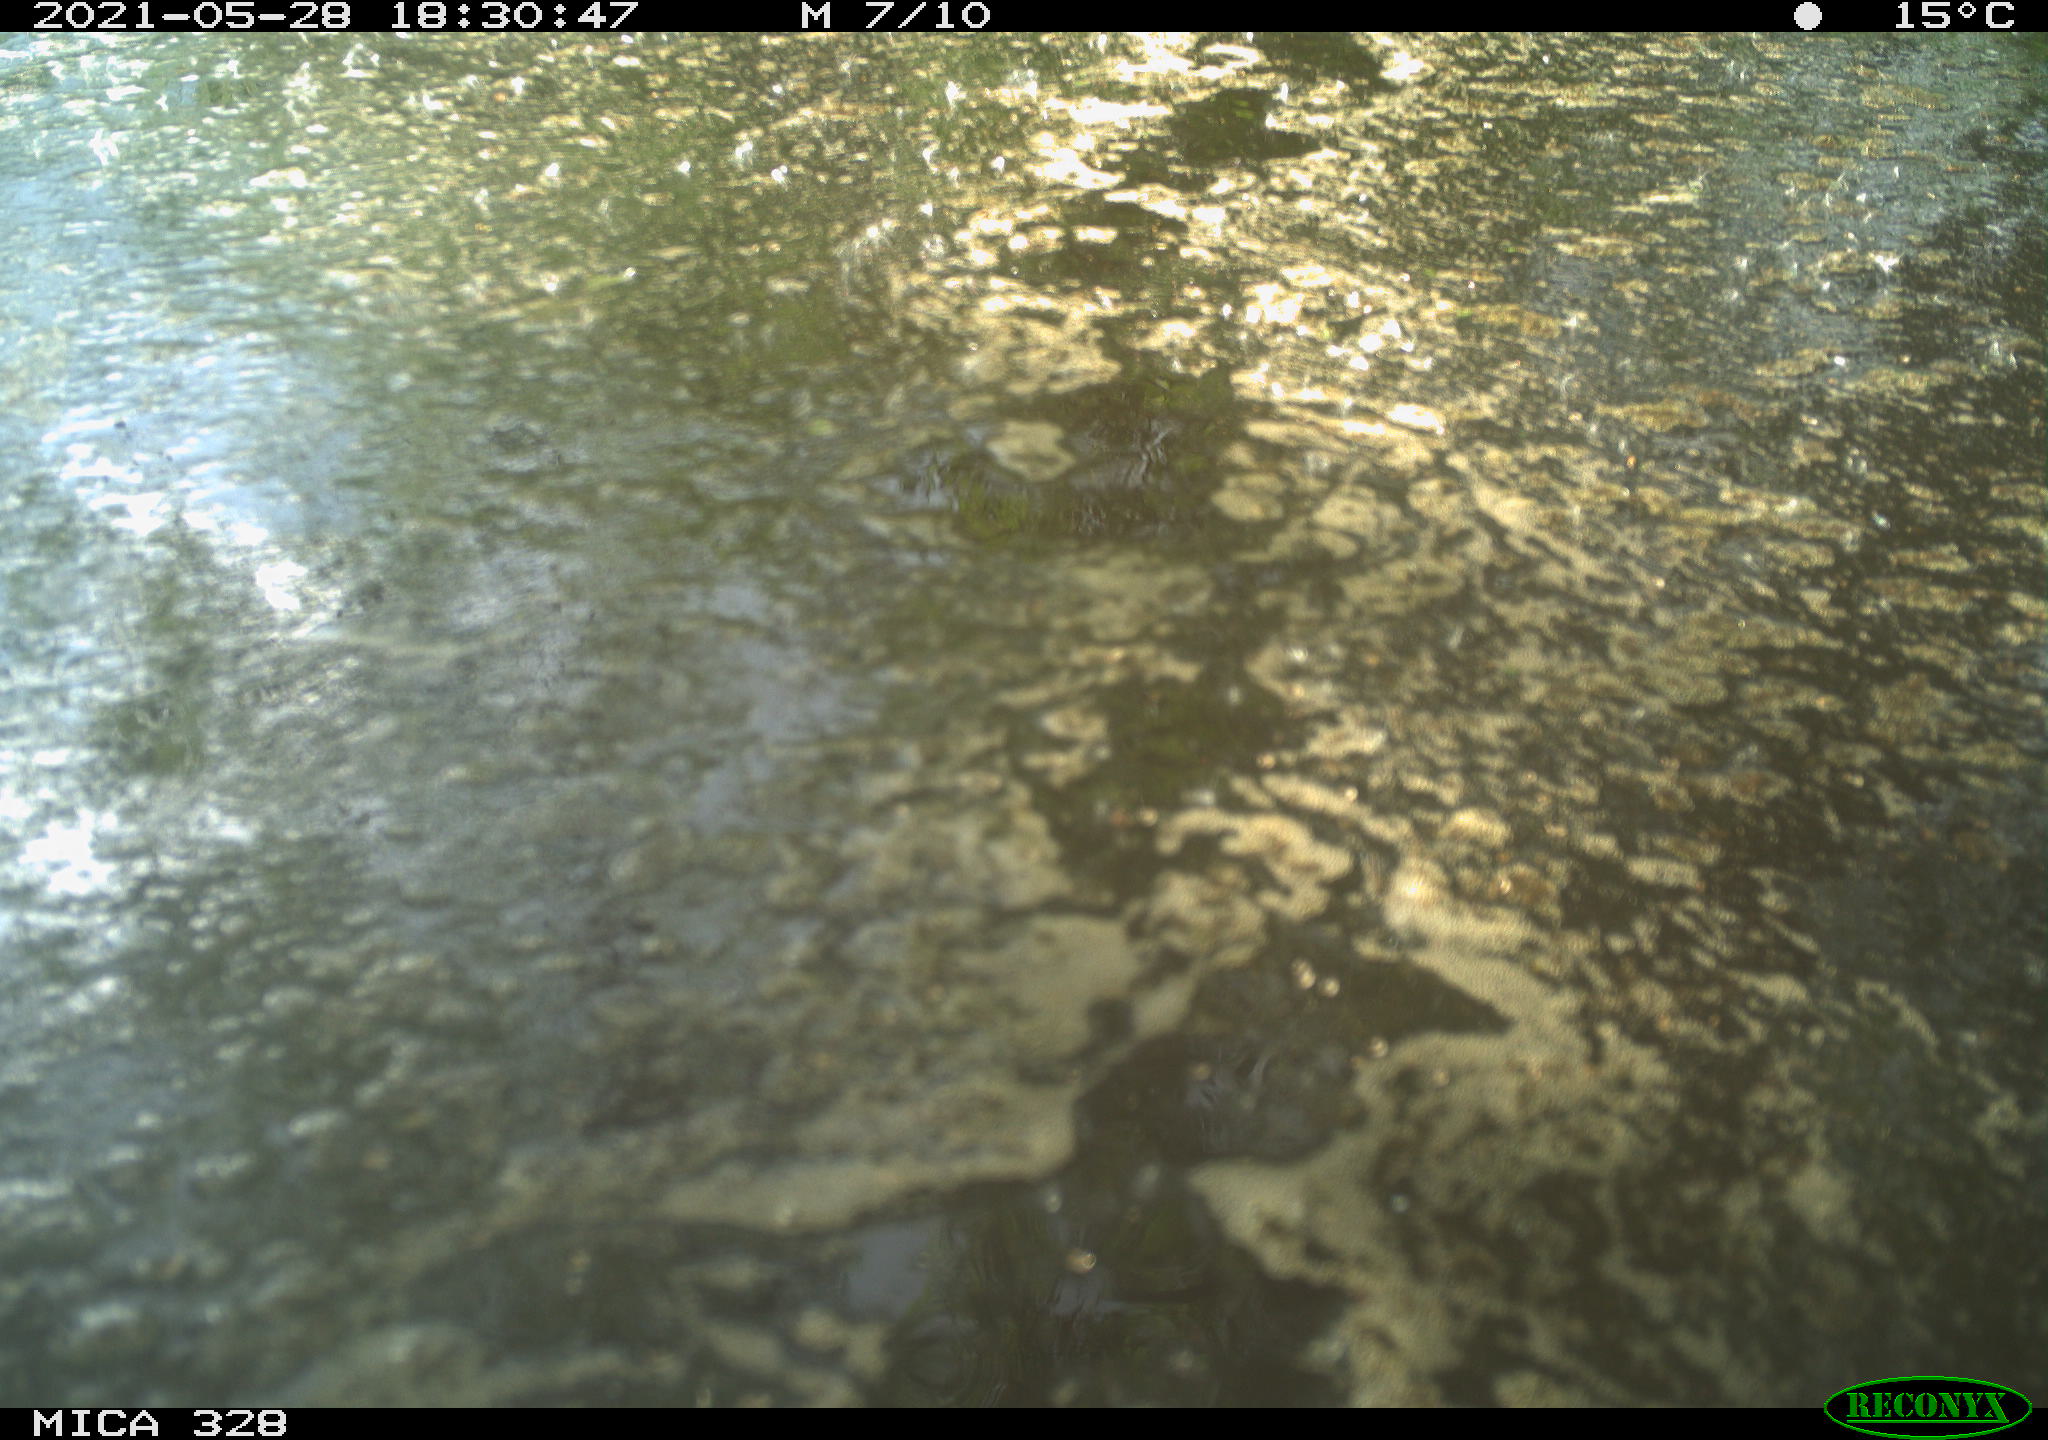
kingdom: Animalia
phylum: Chordata
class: Mammalia
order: Rodentia
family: Cricetidae
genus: Ondatra
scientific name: Ondatra zibethicus
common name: Muskrat
